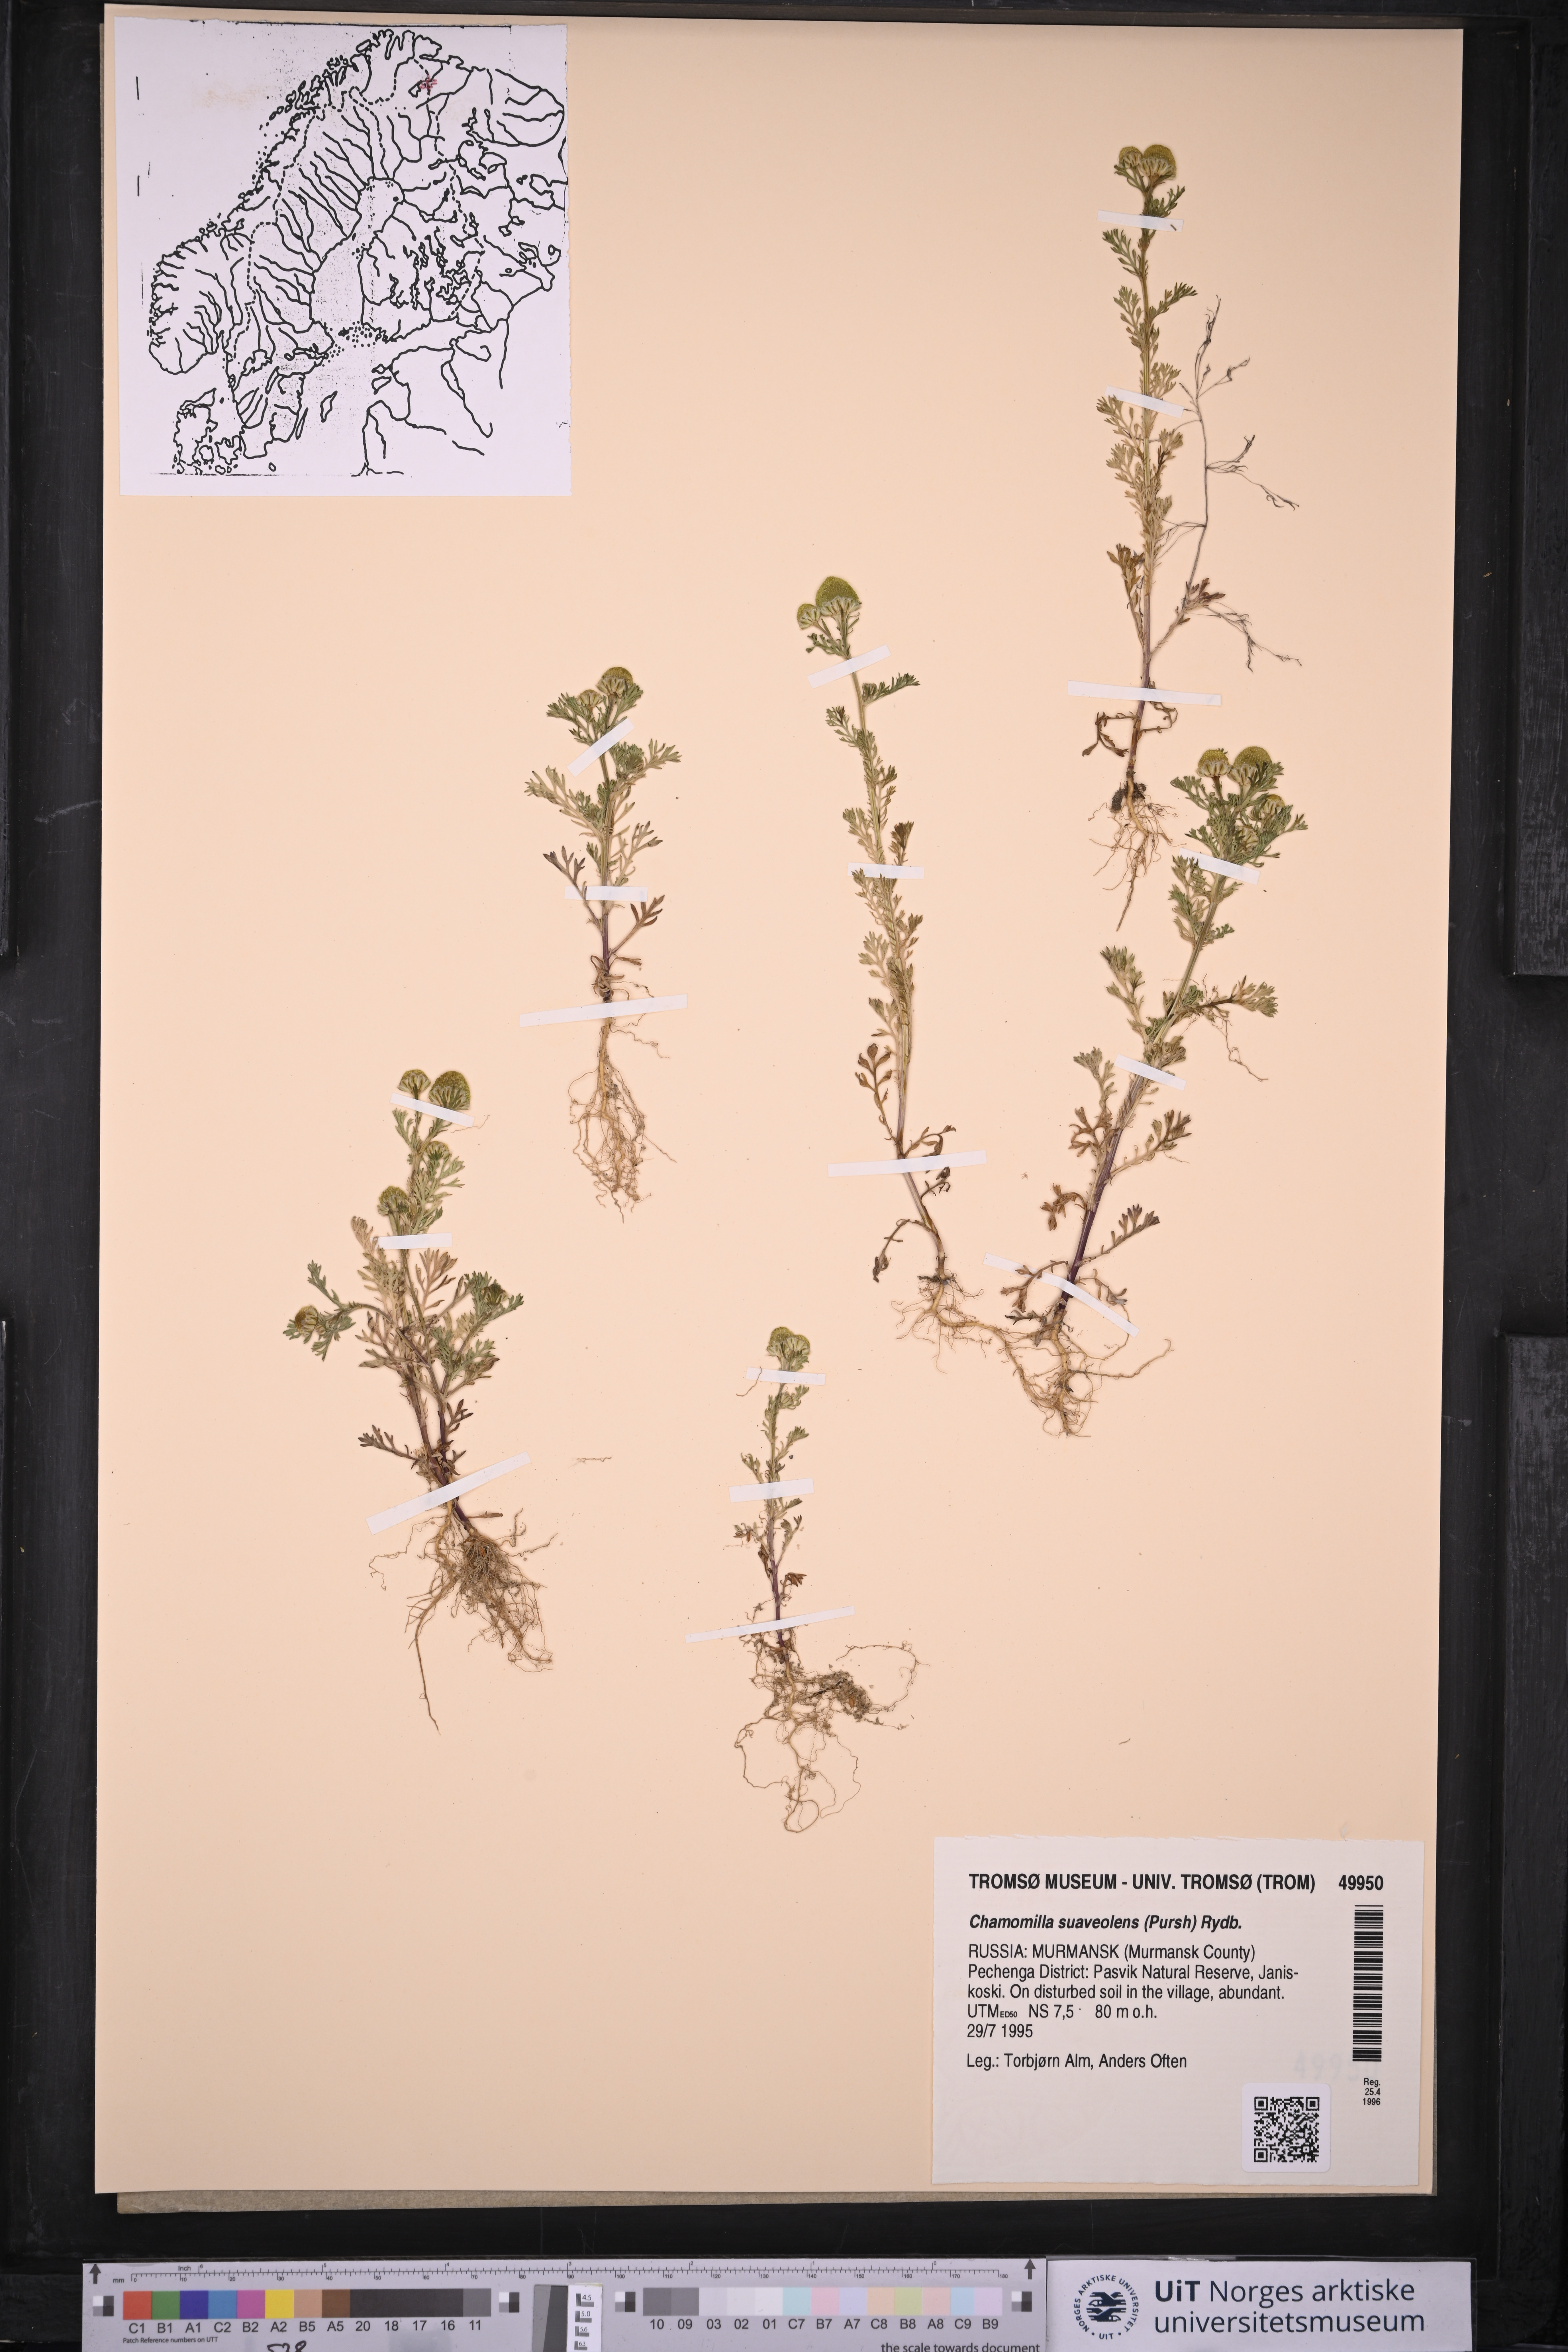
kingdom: Plantae
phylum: Tracheophyta
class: Magnoliopsida
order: Asterales
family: Asteraceae
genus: Matricaria
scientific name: Matricaria discoidea
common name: Disc mayweed
